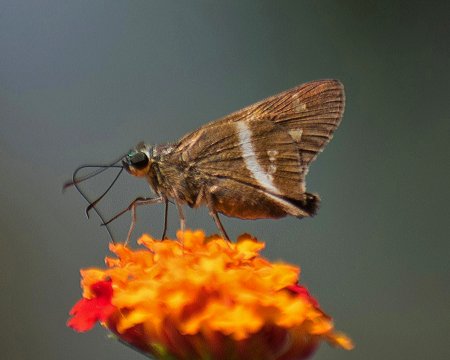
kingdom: Animalia
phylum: Arthropoda
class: Insecta
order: Lepidoptera
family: Hesperiidae
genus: Niconiades
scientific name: Niconiades nikko
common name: Nikko Skipper
